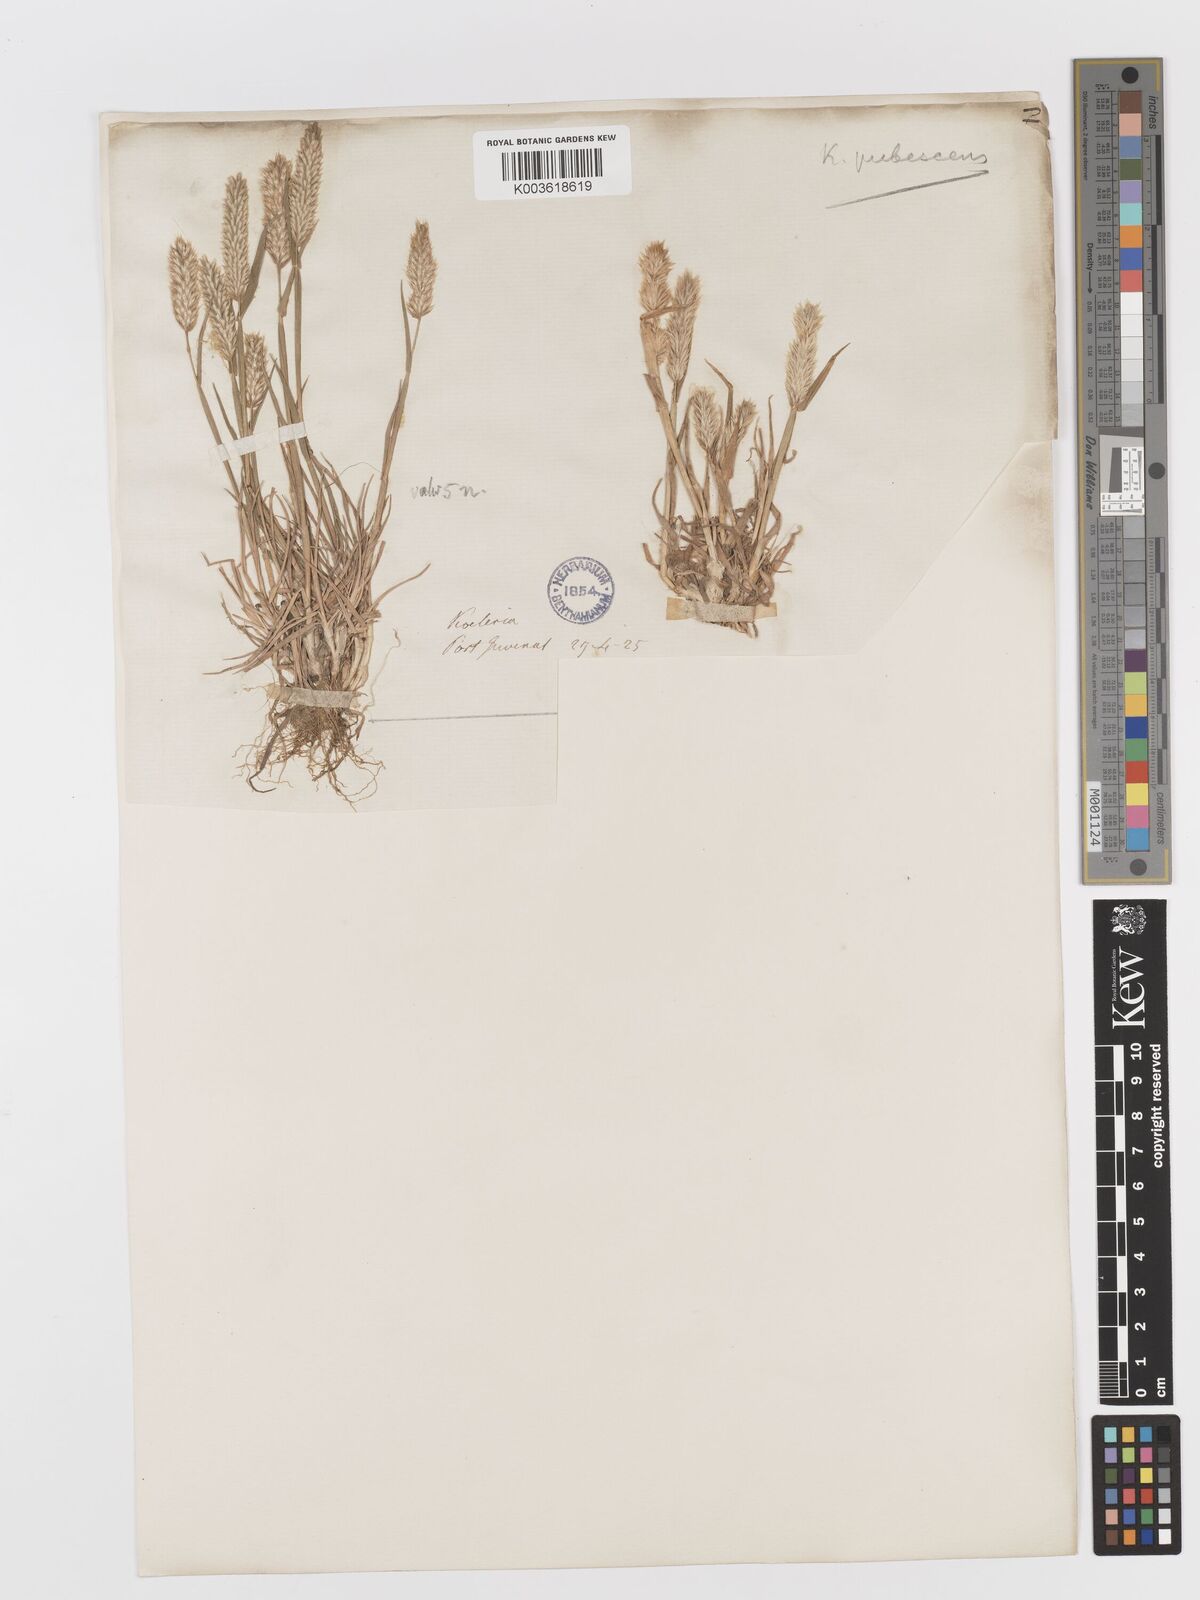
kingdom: Plantae
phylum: Tracheophyta
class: Liliopsida
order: Poales
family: Poaceae
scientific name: Poaceae
